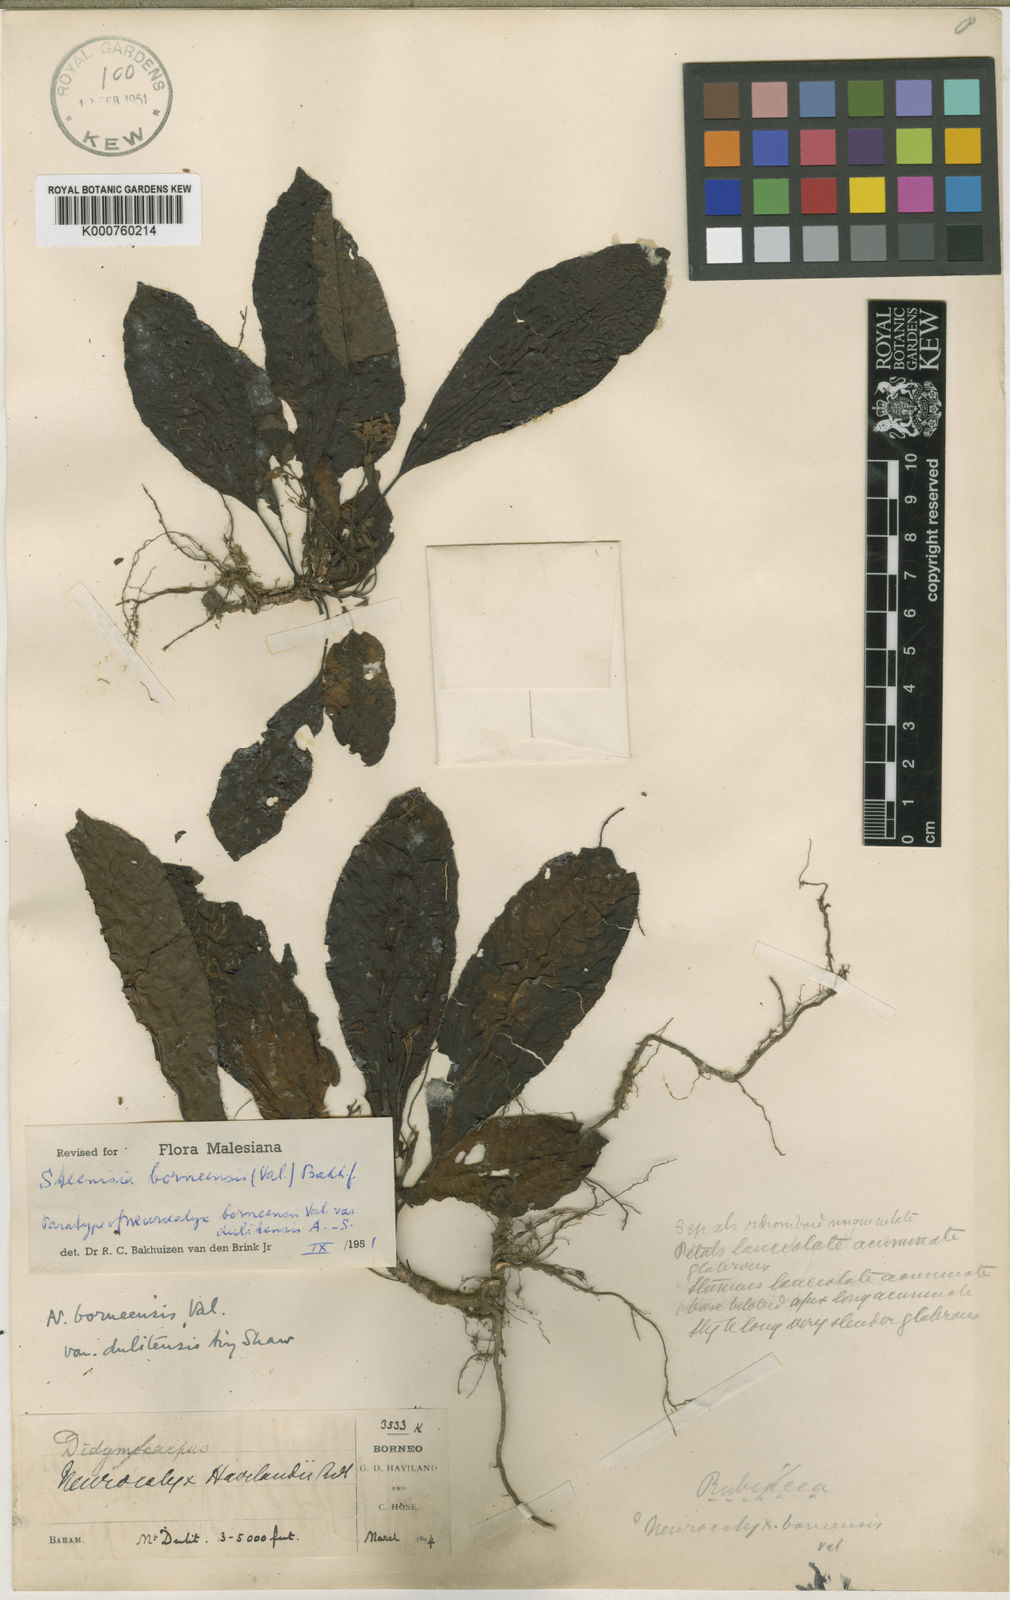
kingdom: Plantae
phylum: Tracheophyta
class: Magnoliopsida
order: Gentianales
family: Rubiaceae
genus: Steenisia
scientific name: Steenisia borneensis
